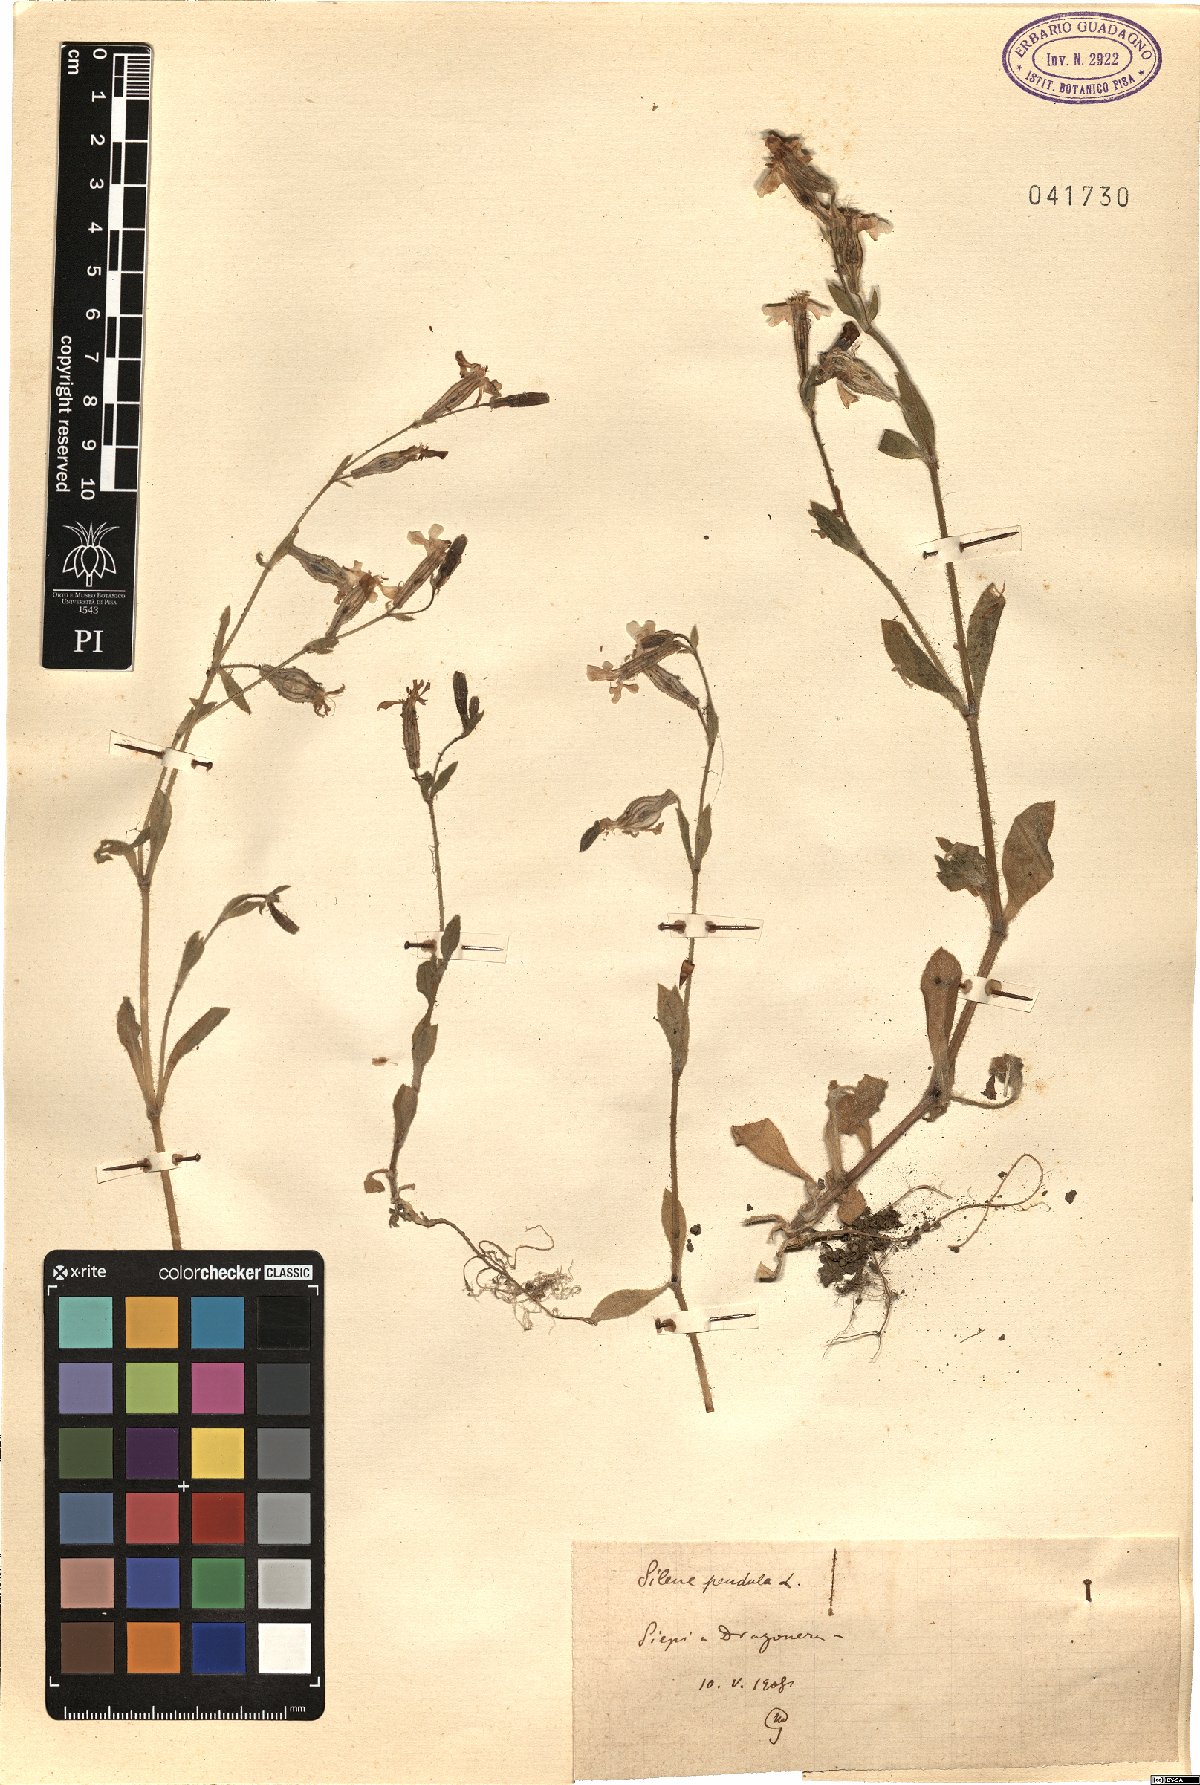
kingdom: Plantae
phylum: Tracheophyta
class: Magnoliopsida
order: Caryophyllales
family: Caryophyllaceae
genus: Silene
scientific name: Silene pendula
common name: Nodding catchfly
